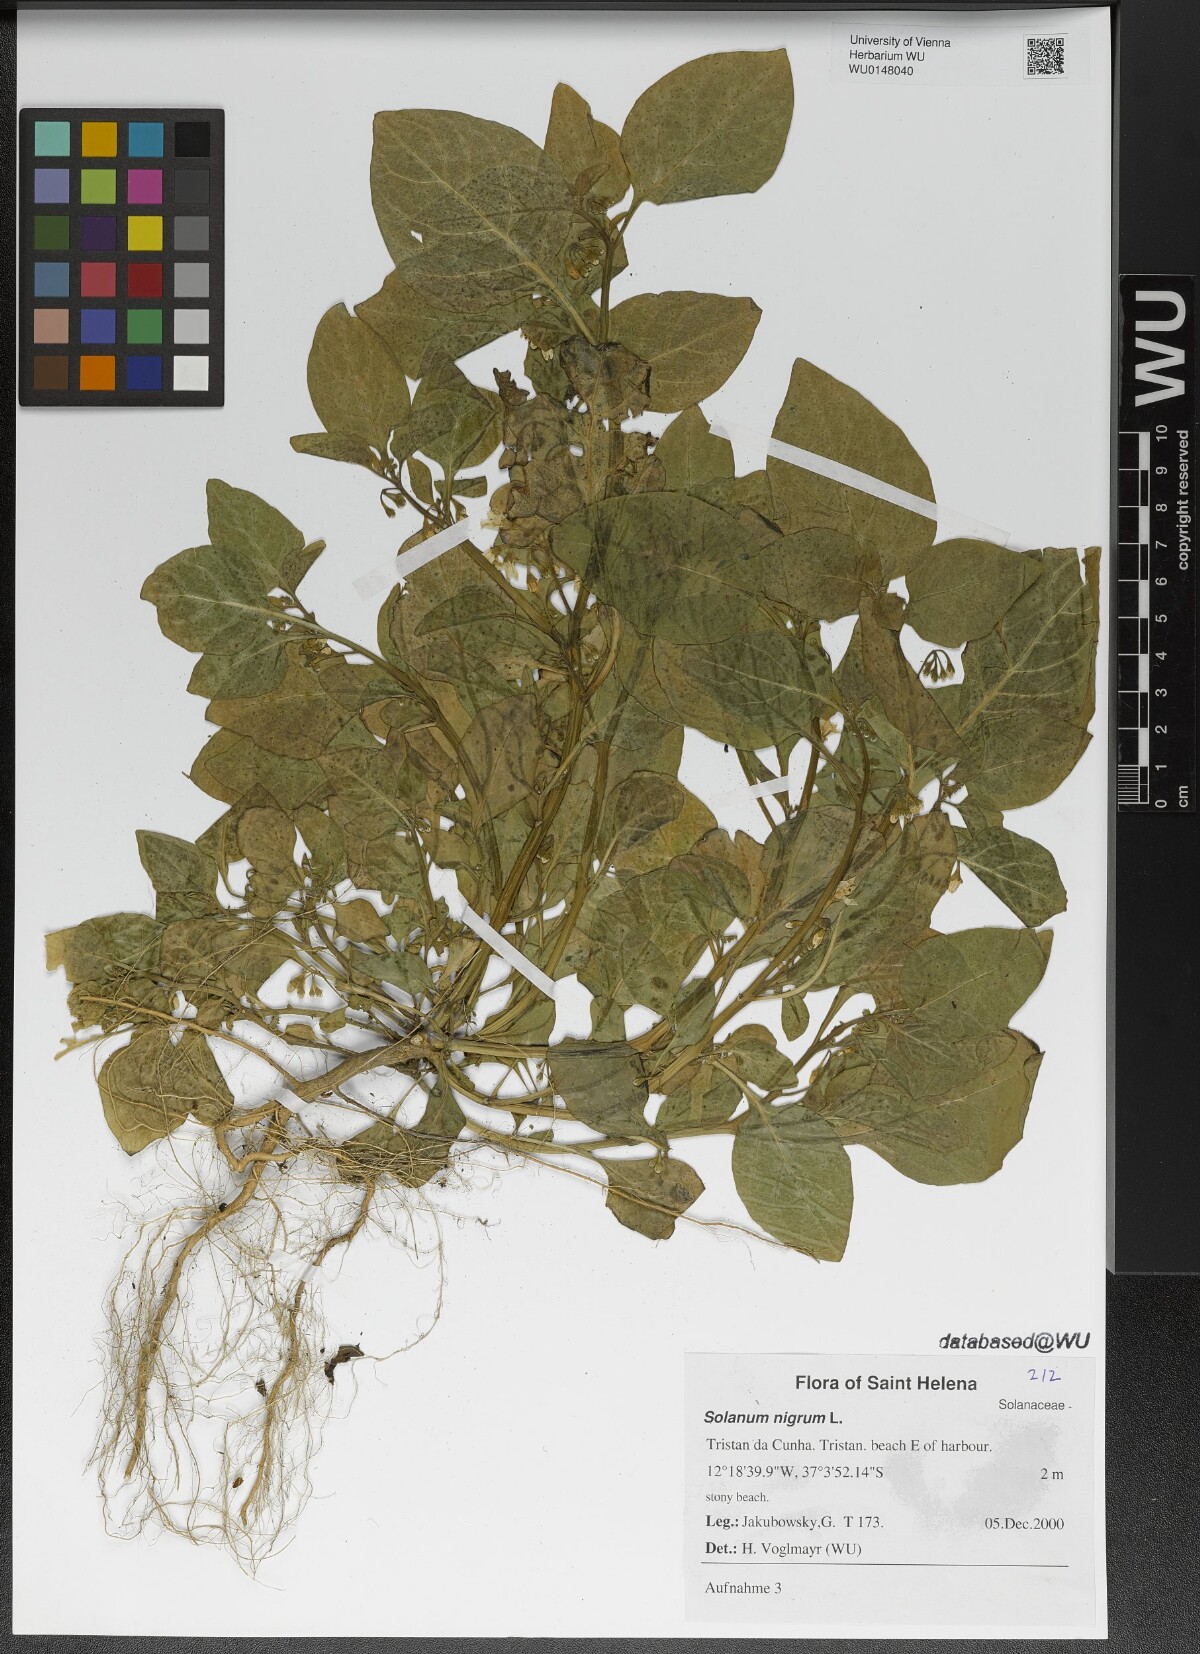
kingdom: Plantae
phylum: Tracheophyta
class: Magnoliopsida
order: Solanales
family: Solanaceae
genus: Solanum
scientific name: Solanum nigrum
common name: Black nightshade
